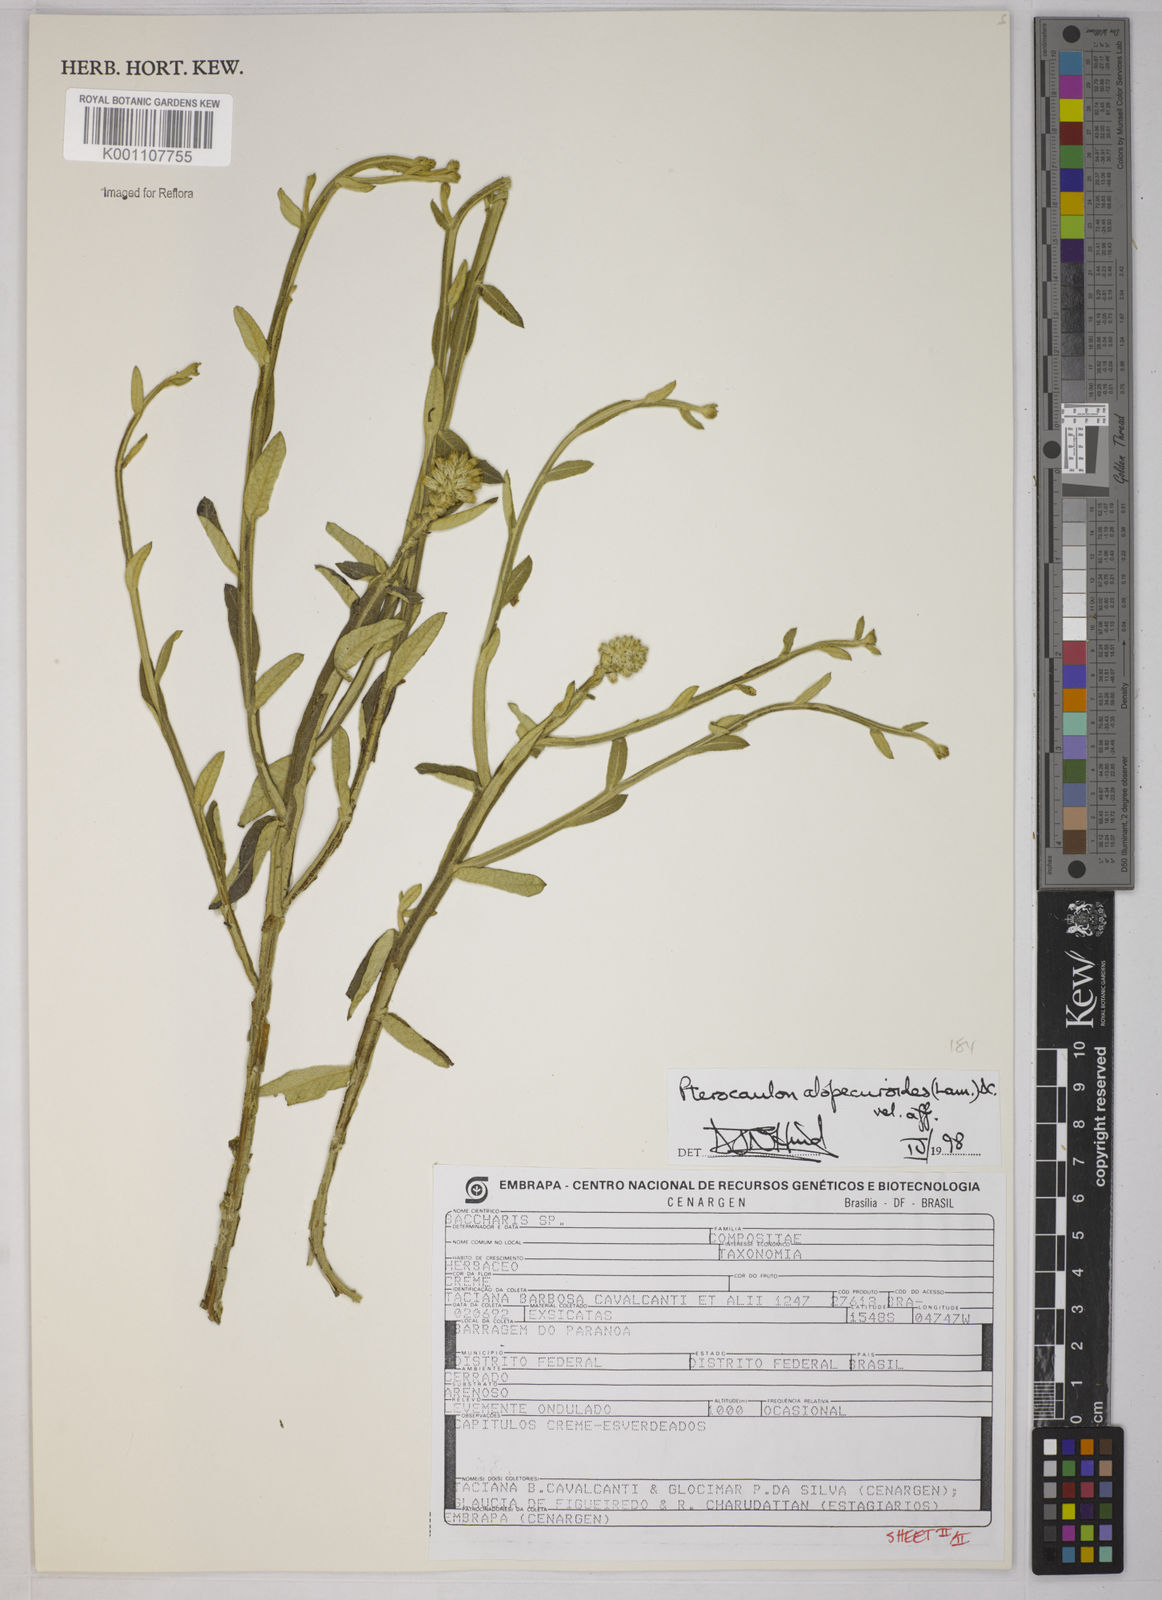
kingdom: Plantae
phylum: Tracheophyta
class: Magnoliopsida
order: Asterales
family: Asteraceae
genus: Pterocaulon
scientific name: Pterocaulon alopecuroides
